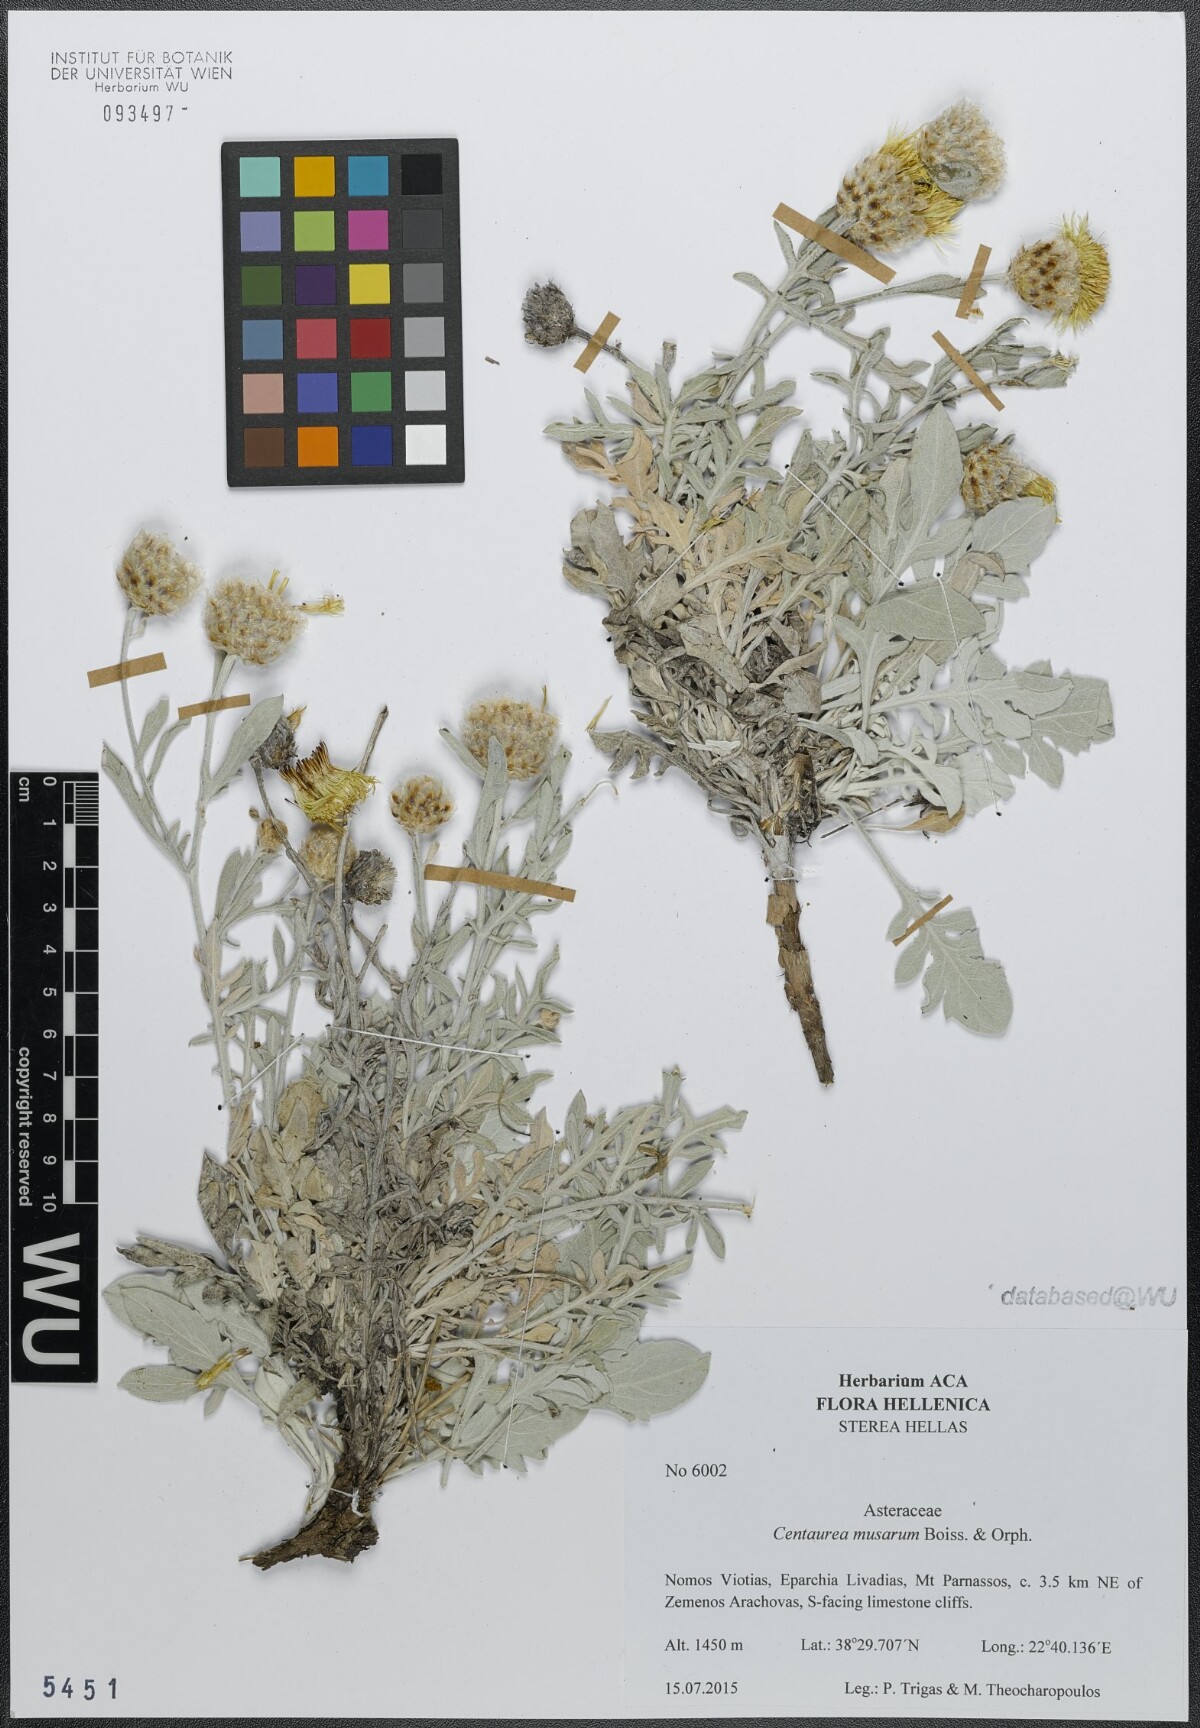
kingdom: Plantae
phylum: Tracheophyta
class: Magnoliopsida
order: Asterales
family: Asteraceae
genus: Centaurea
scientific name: Centaurea musarum
